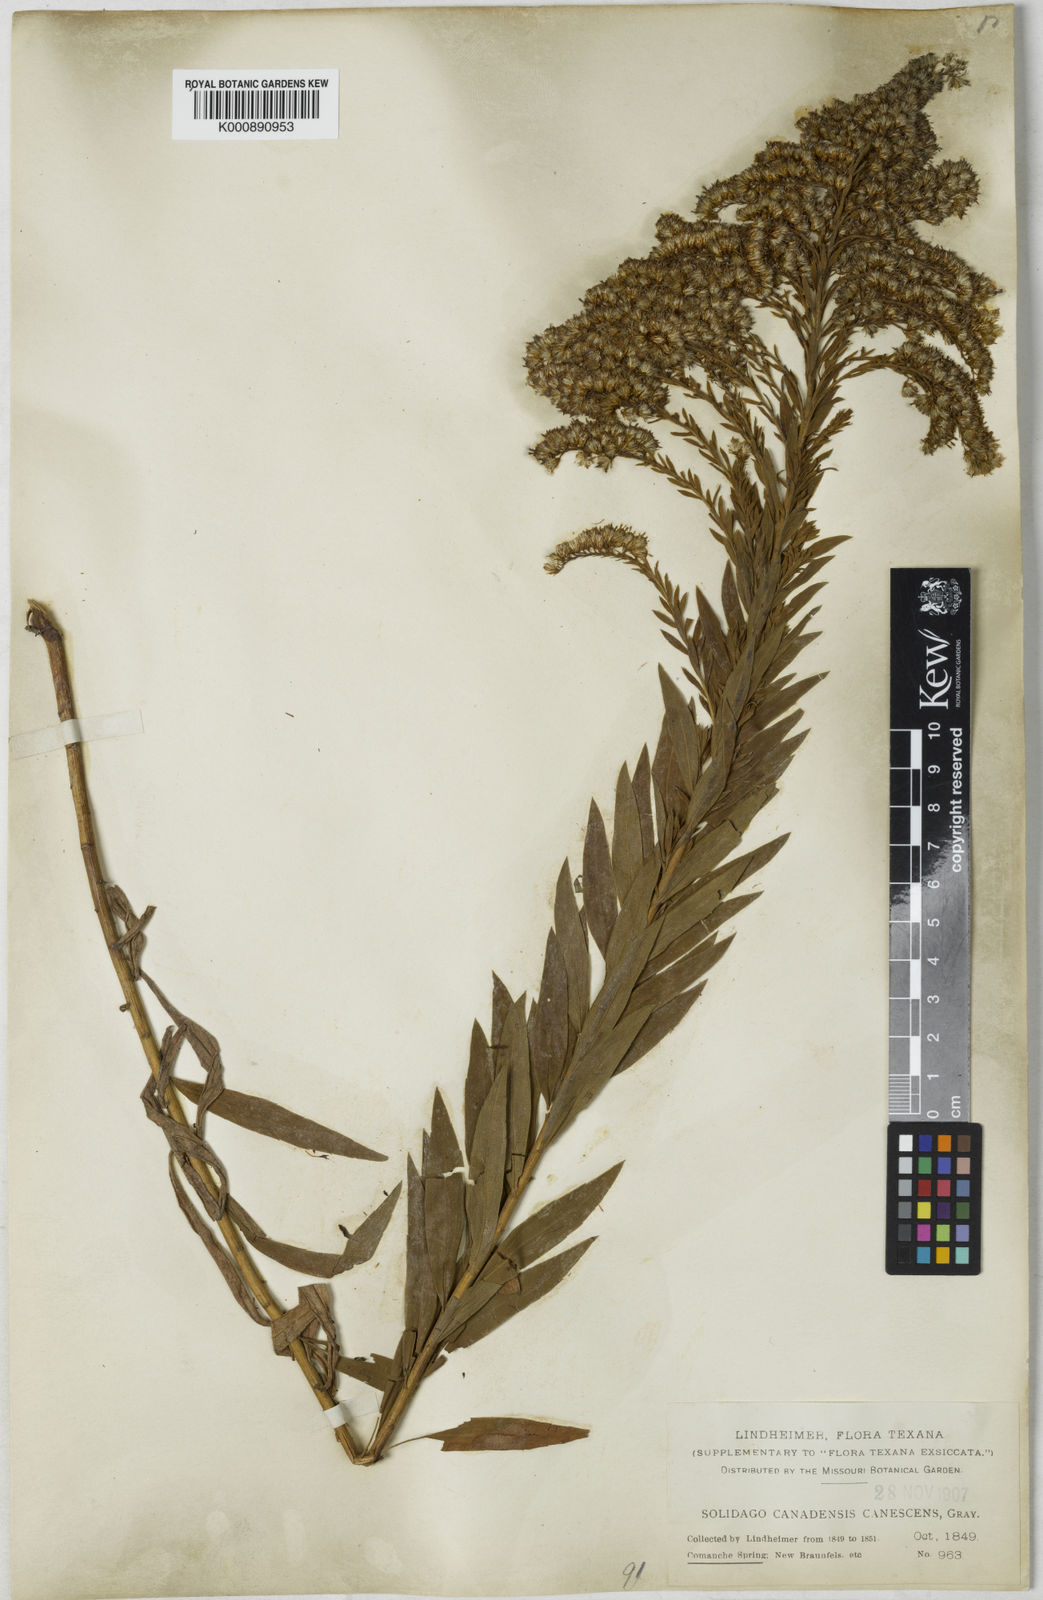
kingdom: Plantae
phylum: Tracheophyta
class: Magnoliopsida
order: Asterales
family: Asteraceae
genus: Solidago
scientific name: Solidago altissima
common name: Late goldenrod
